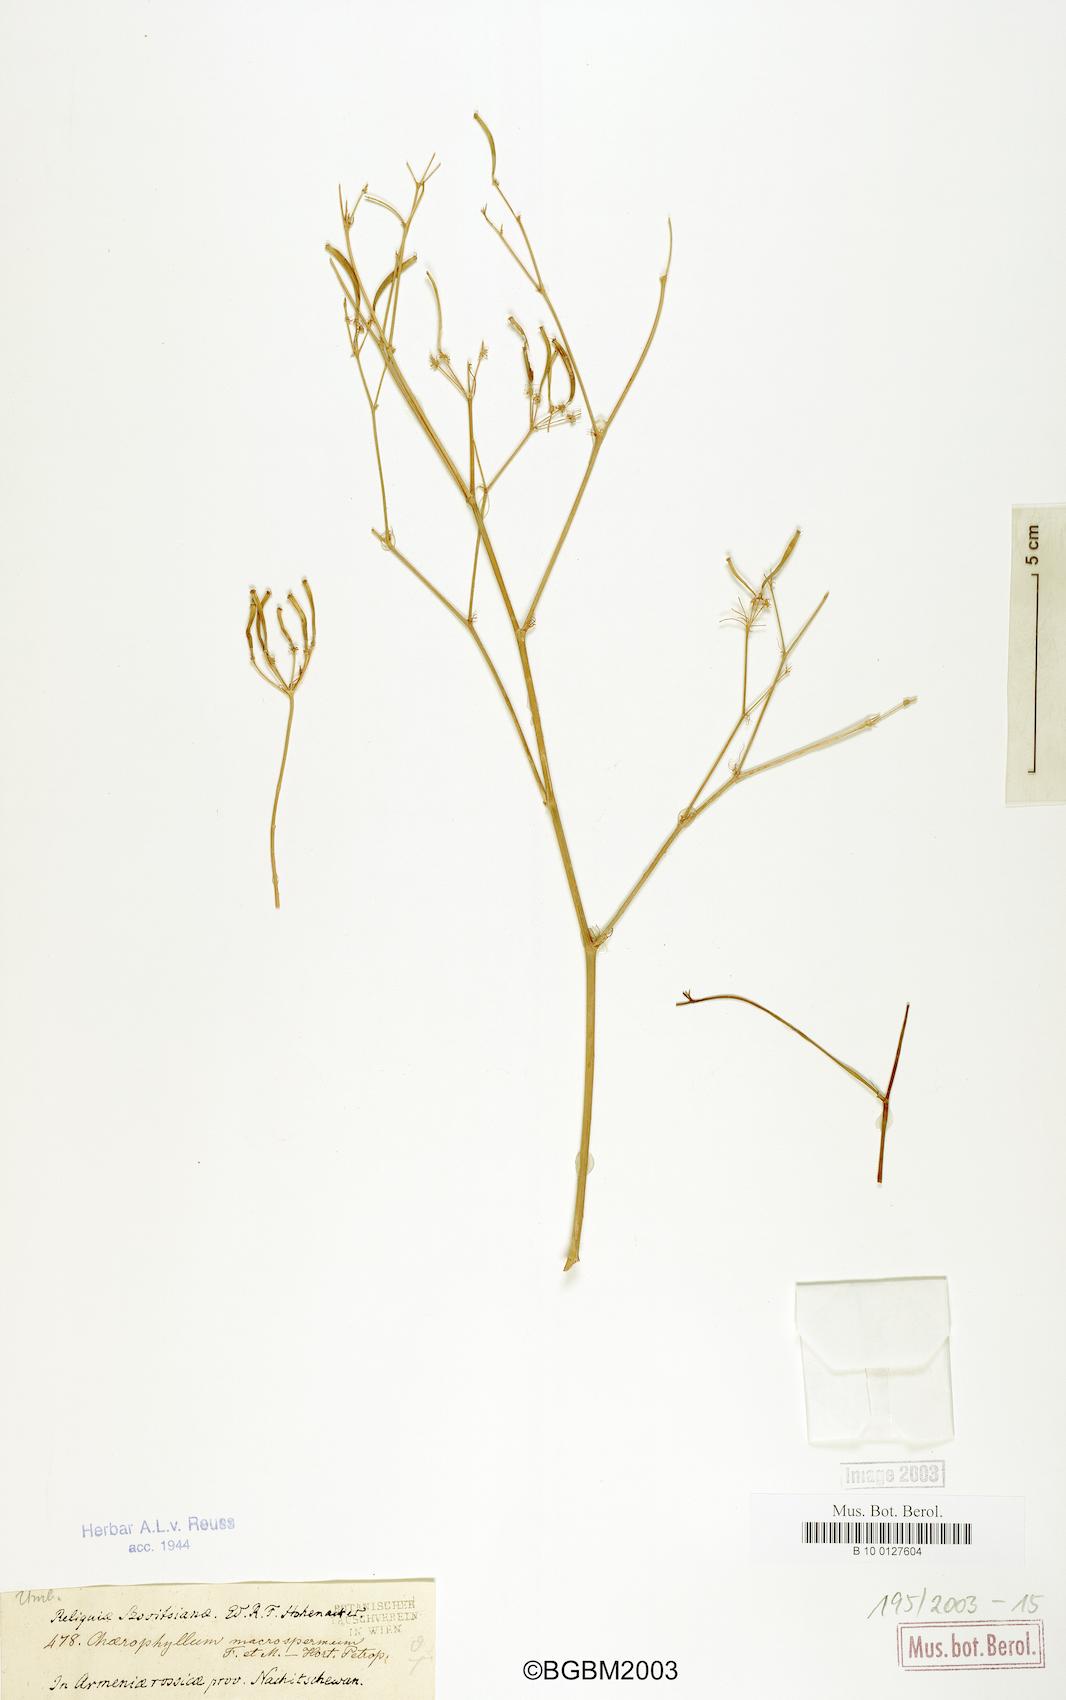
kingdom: Plantae
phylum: Tracheophyta
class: Magnoliopsida
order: Apiales
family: Apiaceae
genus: Chaerophyllum
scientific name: Chaerophyllum macrospermum
